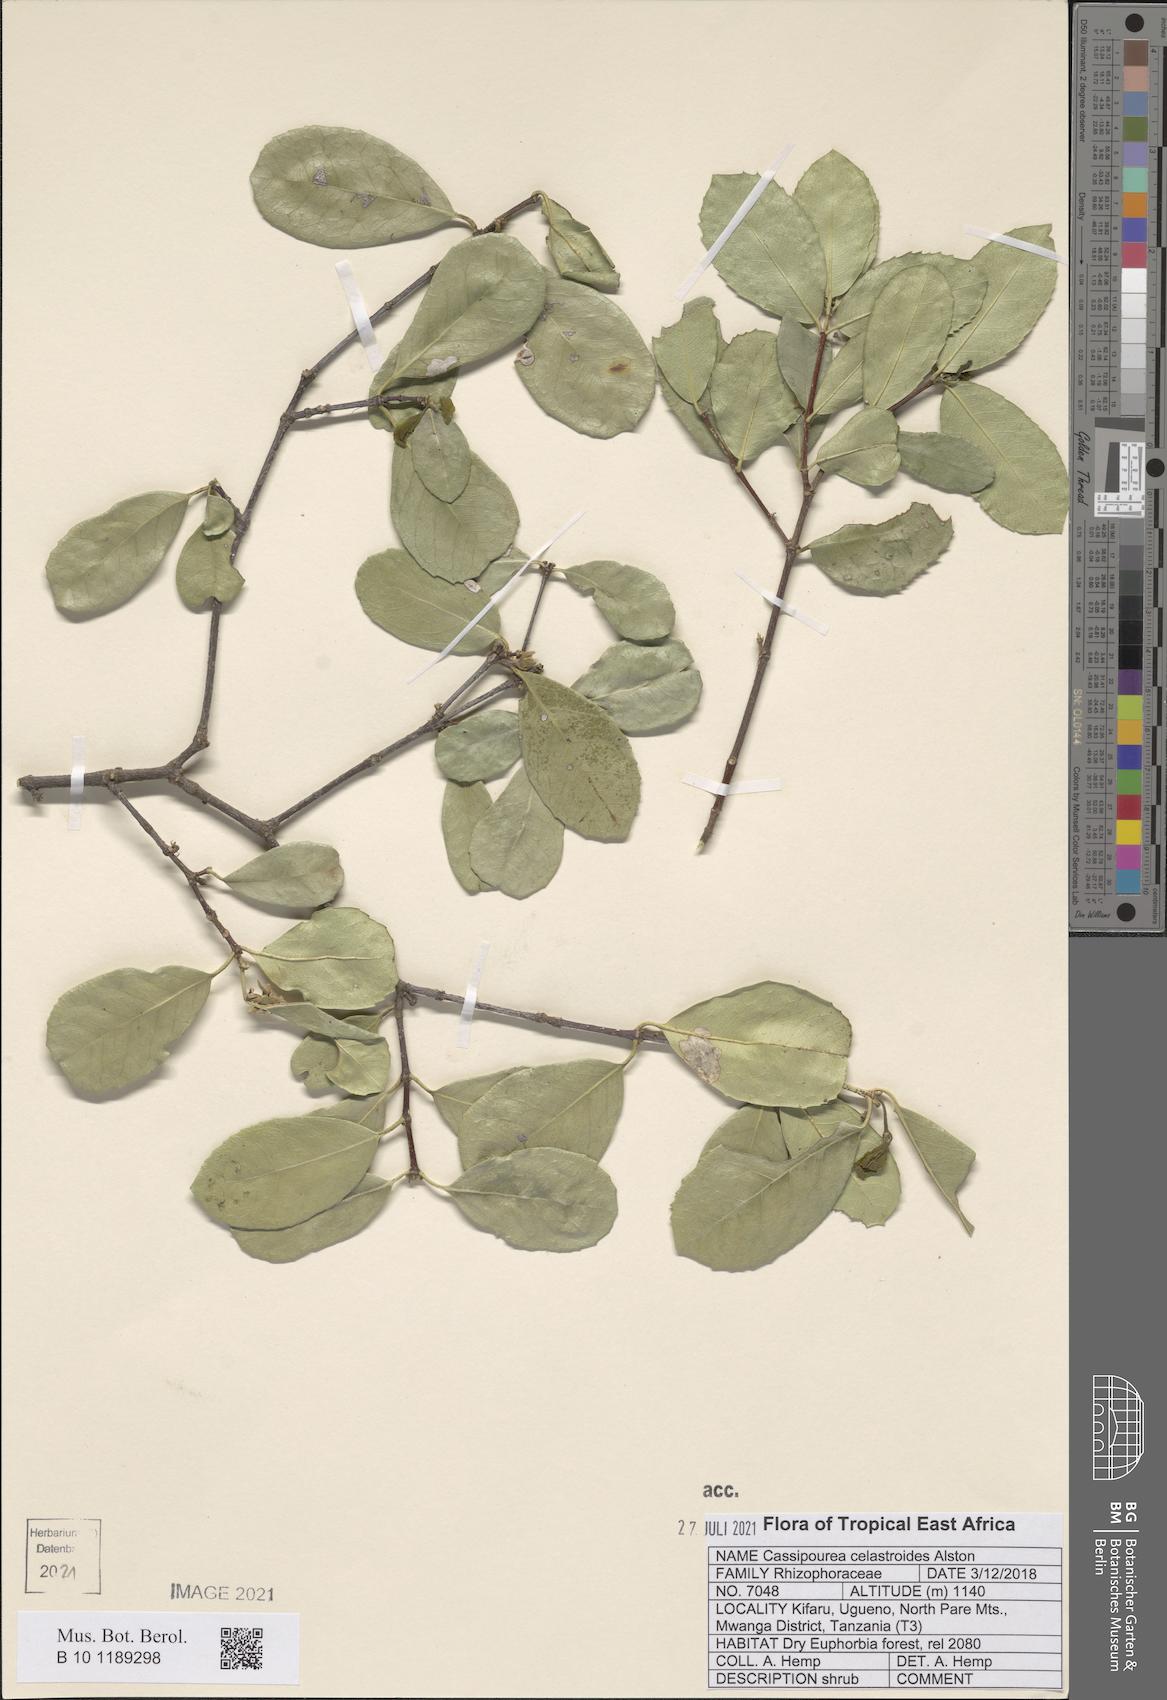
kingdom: Plantae
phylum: Tracheophyta
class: Magnoliopsida
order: Malpighiales
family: Rhizophoraceae
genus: Cassipourea
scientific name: Cassipourea celastroides
